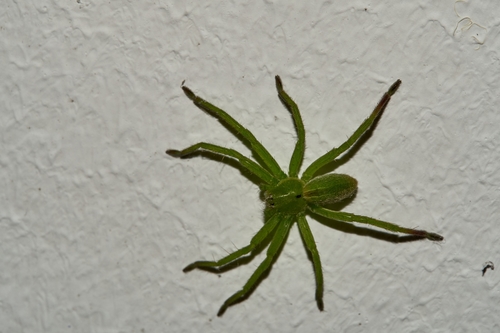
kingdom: Animalia
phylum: Arthropoda
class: Arachnida
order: Araneae
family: Sparassidae
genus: Micrommata
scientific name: Micrommata ligurina
